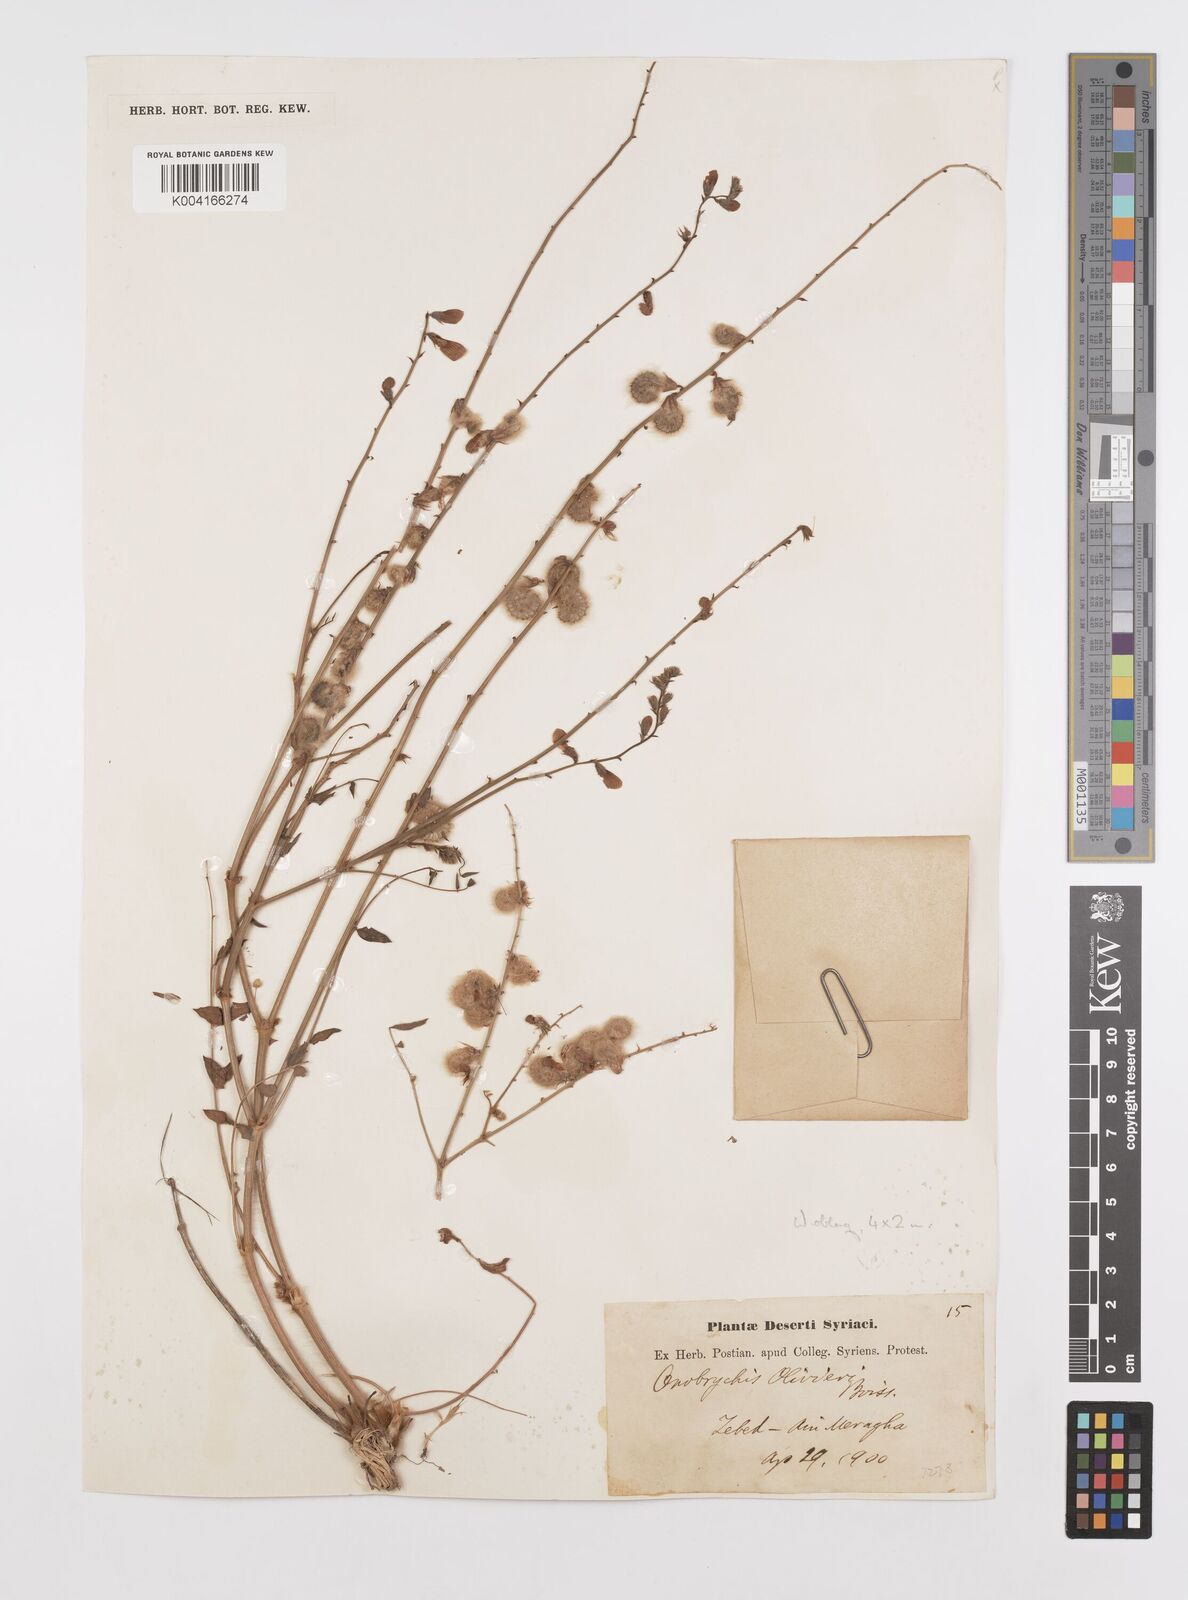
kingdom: Plantae
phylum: Tracheophyta
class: Magnoliopsida
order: Fabales
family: Fabaceae
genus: Onobrychis
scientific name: Onobrychis ptolemaica
